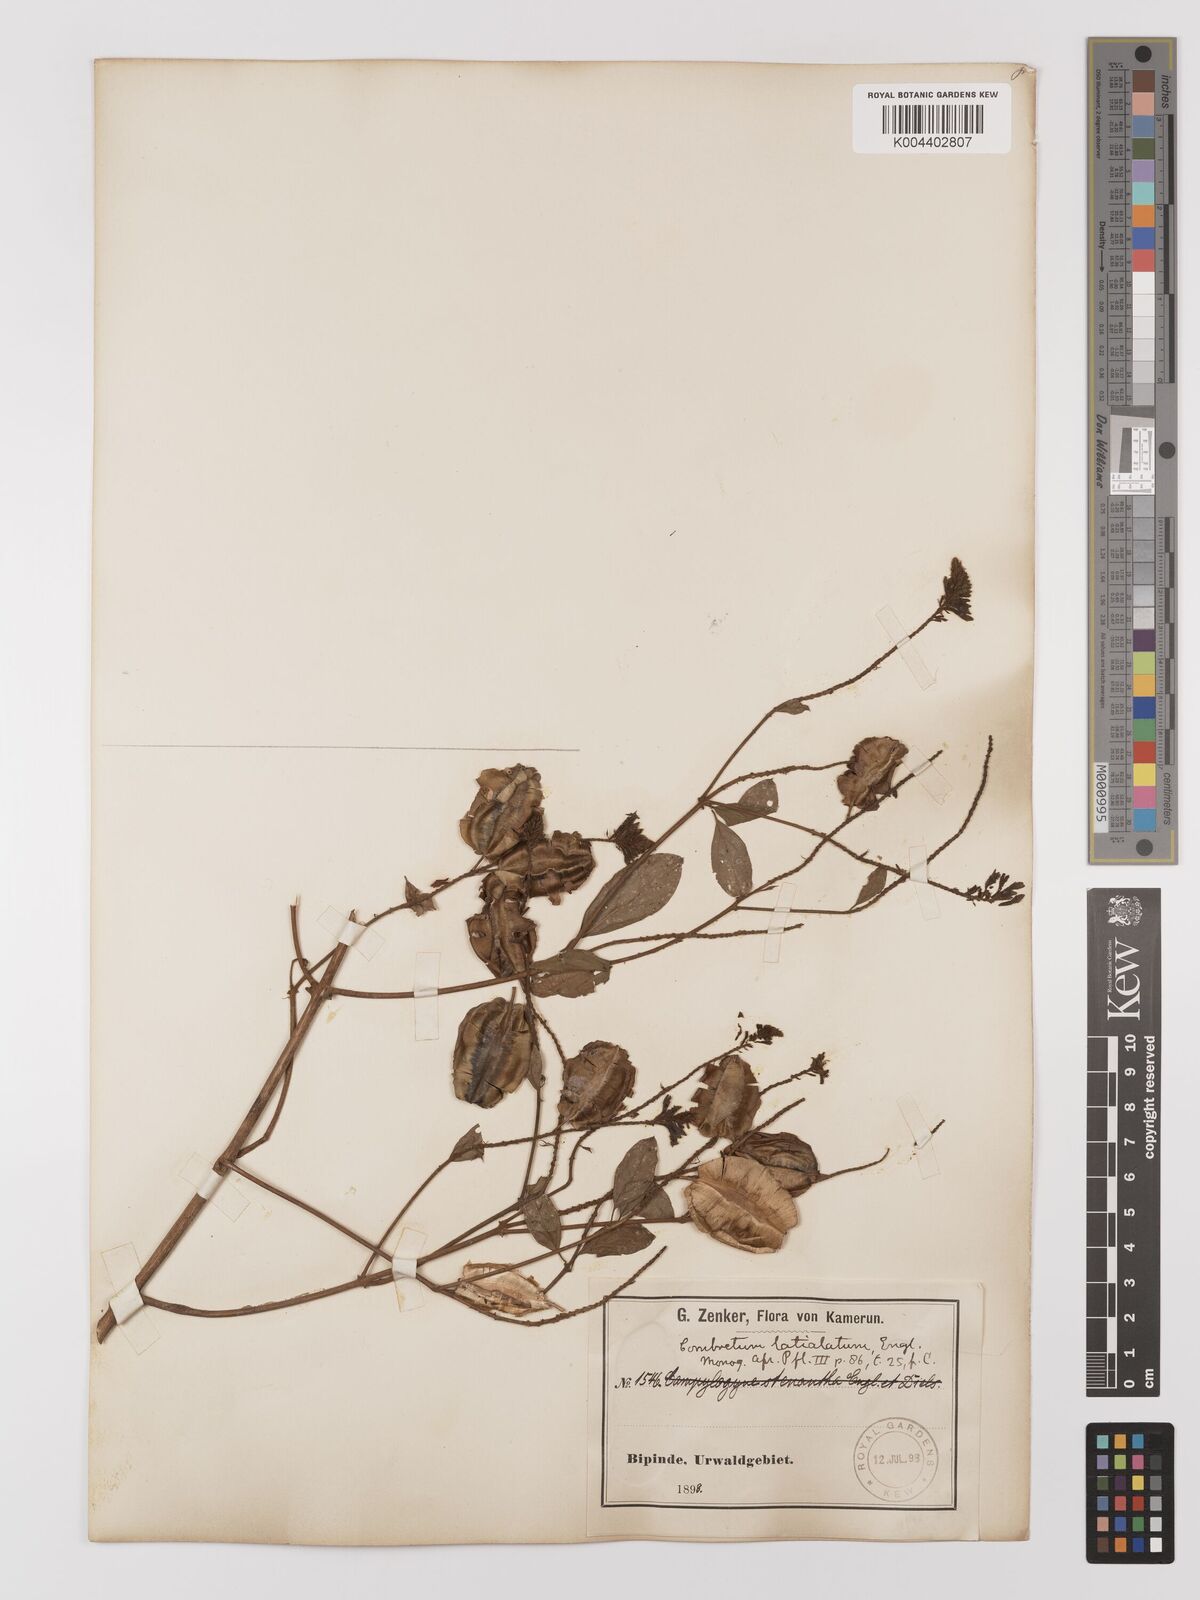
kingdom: Plantae
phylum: Tracheophyta
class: Magnoliopsida
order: Myrtales
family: Combretaceae
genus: Combretum
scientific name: Combretum latialatum
